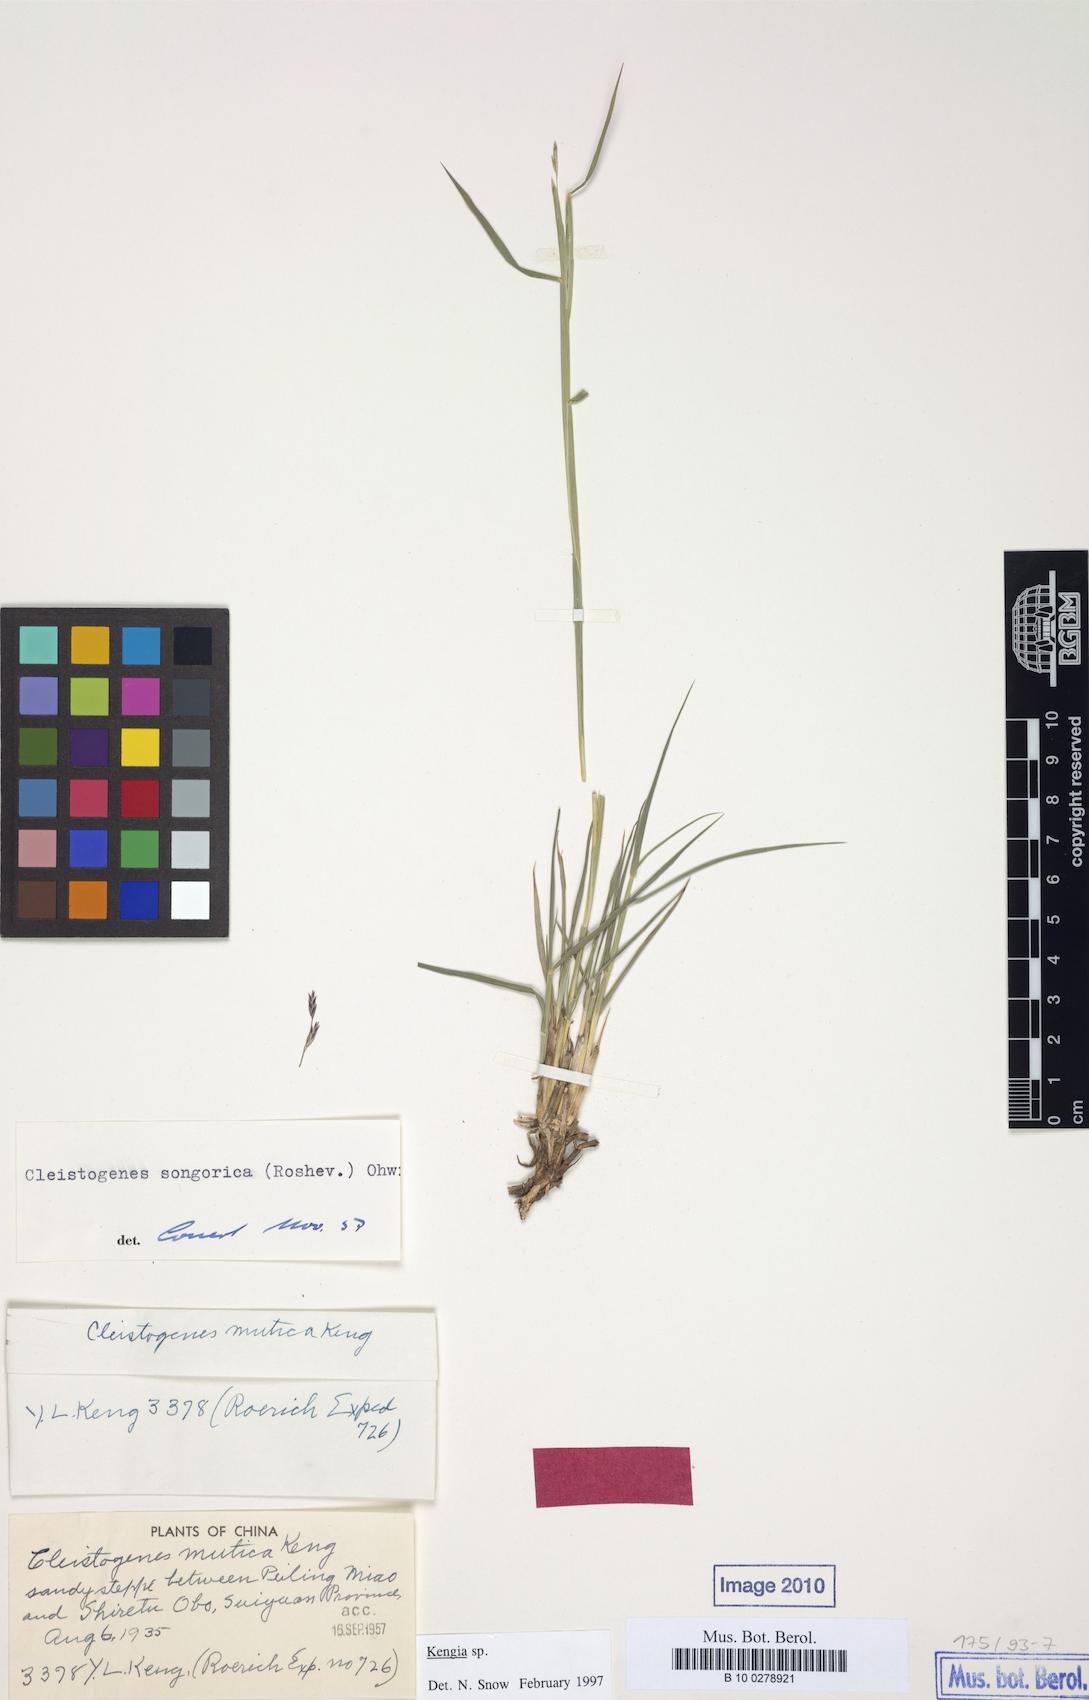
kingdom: Plantae
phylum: Tracheophyta
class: Liliopsida
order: Poales
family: Poaceae
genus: Cleistogenes
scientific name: Cleistogenes songorica
